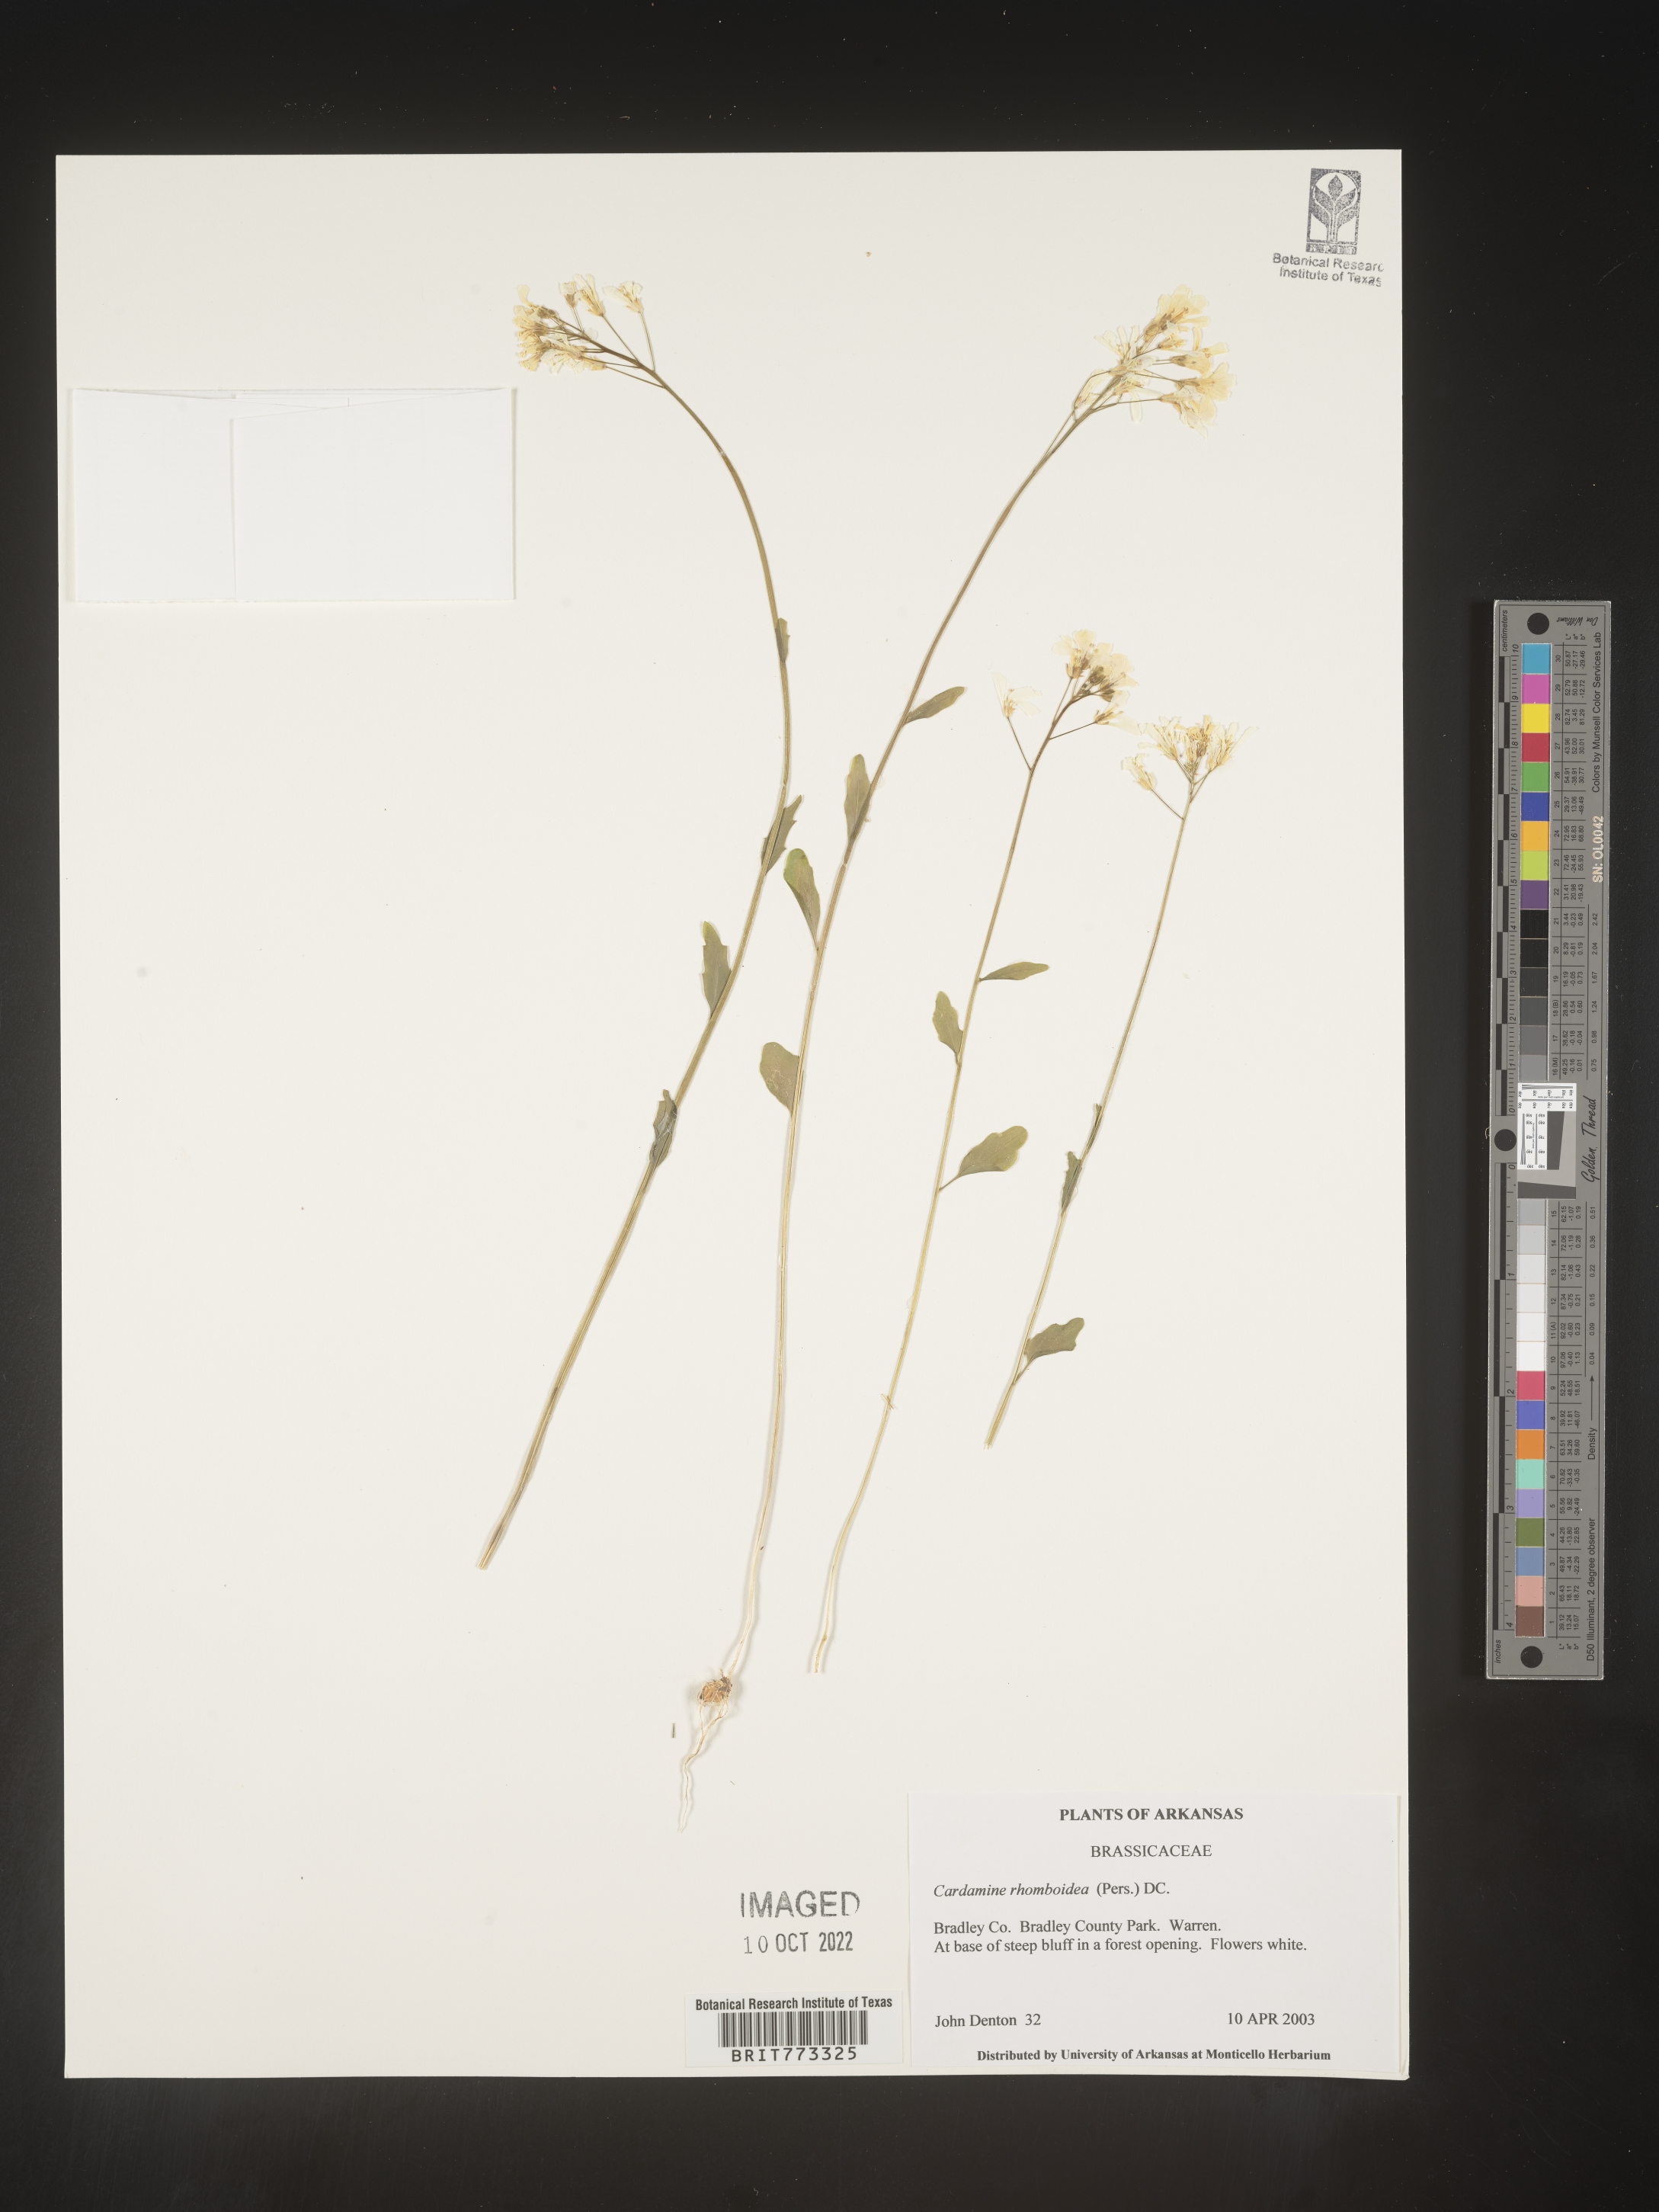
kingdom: Plantae
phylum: Tracheophyta
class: Magnoliopsida
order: Brassicales
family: Brassicaceae
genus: Cardamine
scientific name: Cardamine bulbosa
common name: Spring cress
